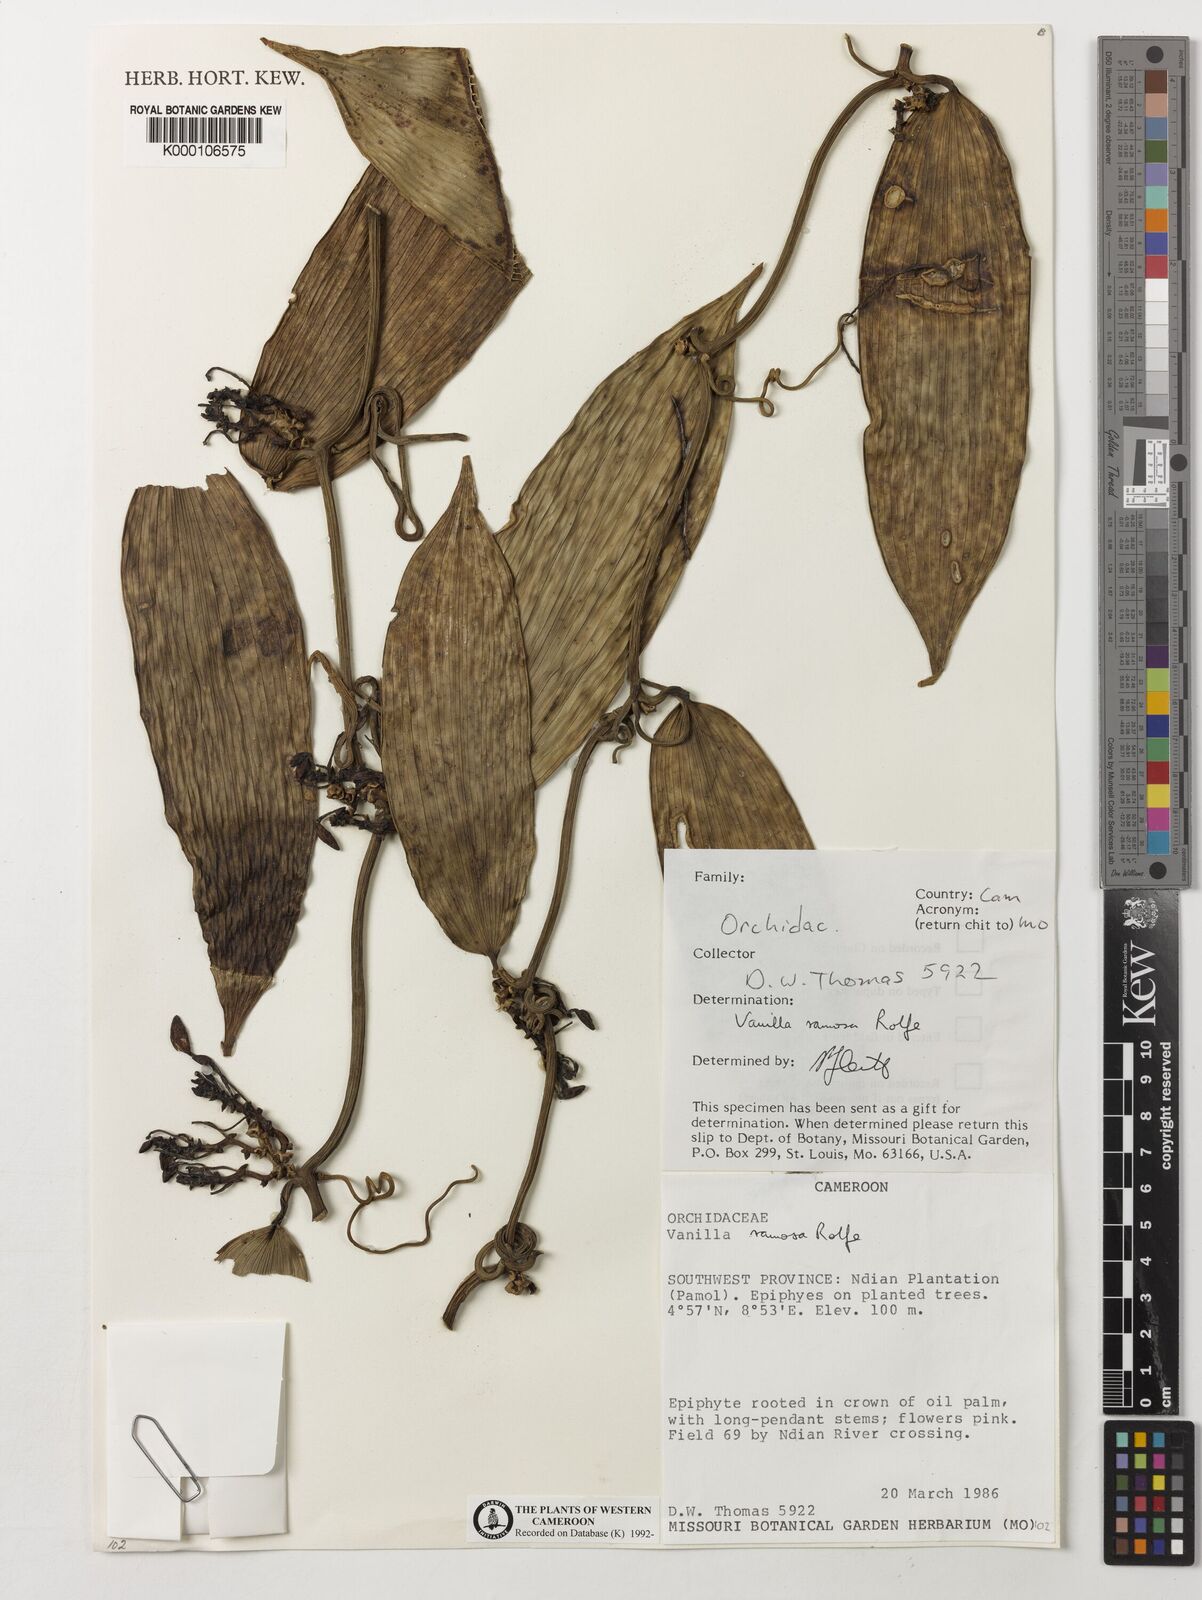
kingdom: Plantae
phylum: Tracheophyta
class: Liliopsida
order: Asparagales
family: Orchidaceae
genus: Vanilla
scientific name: Vanilla ramosa
